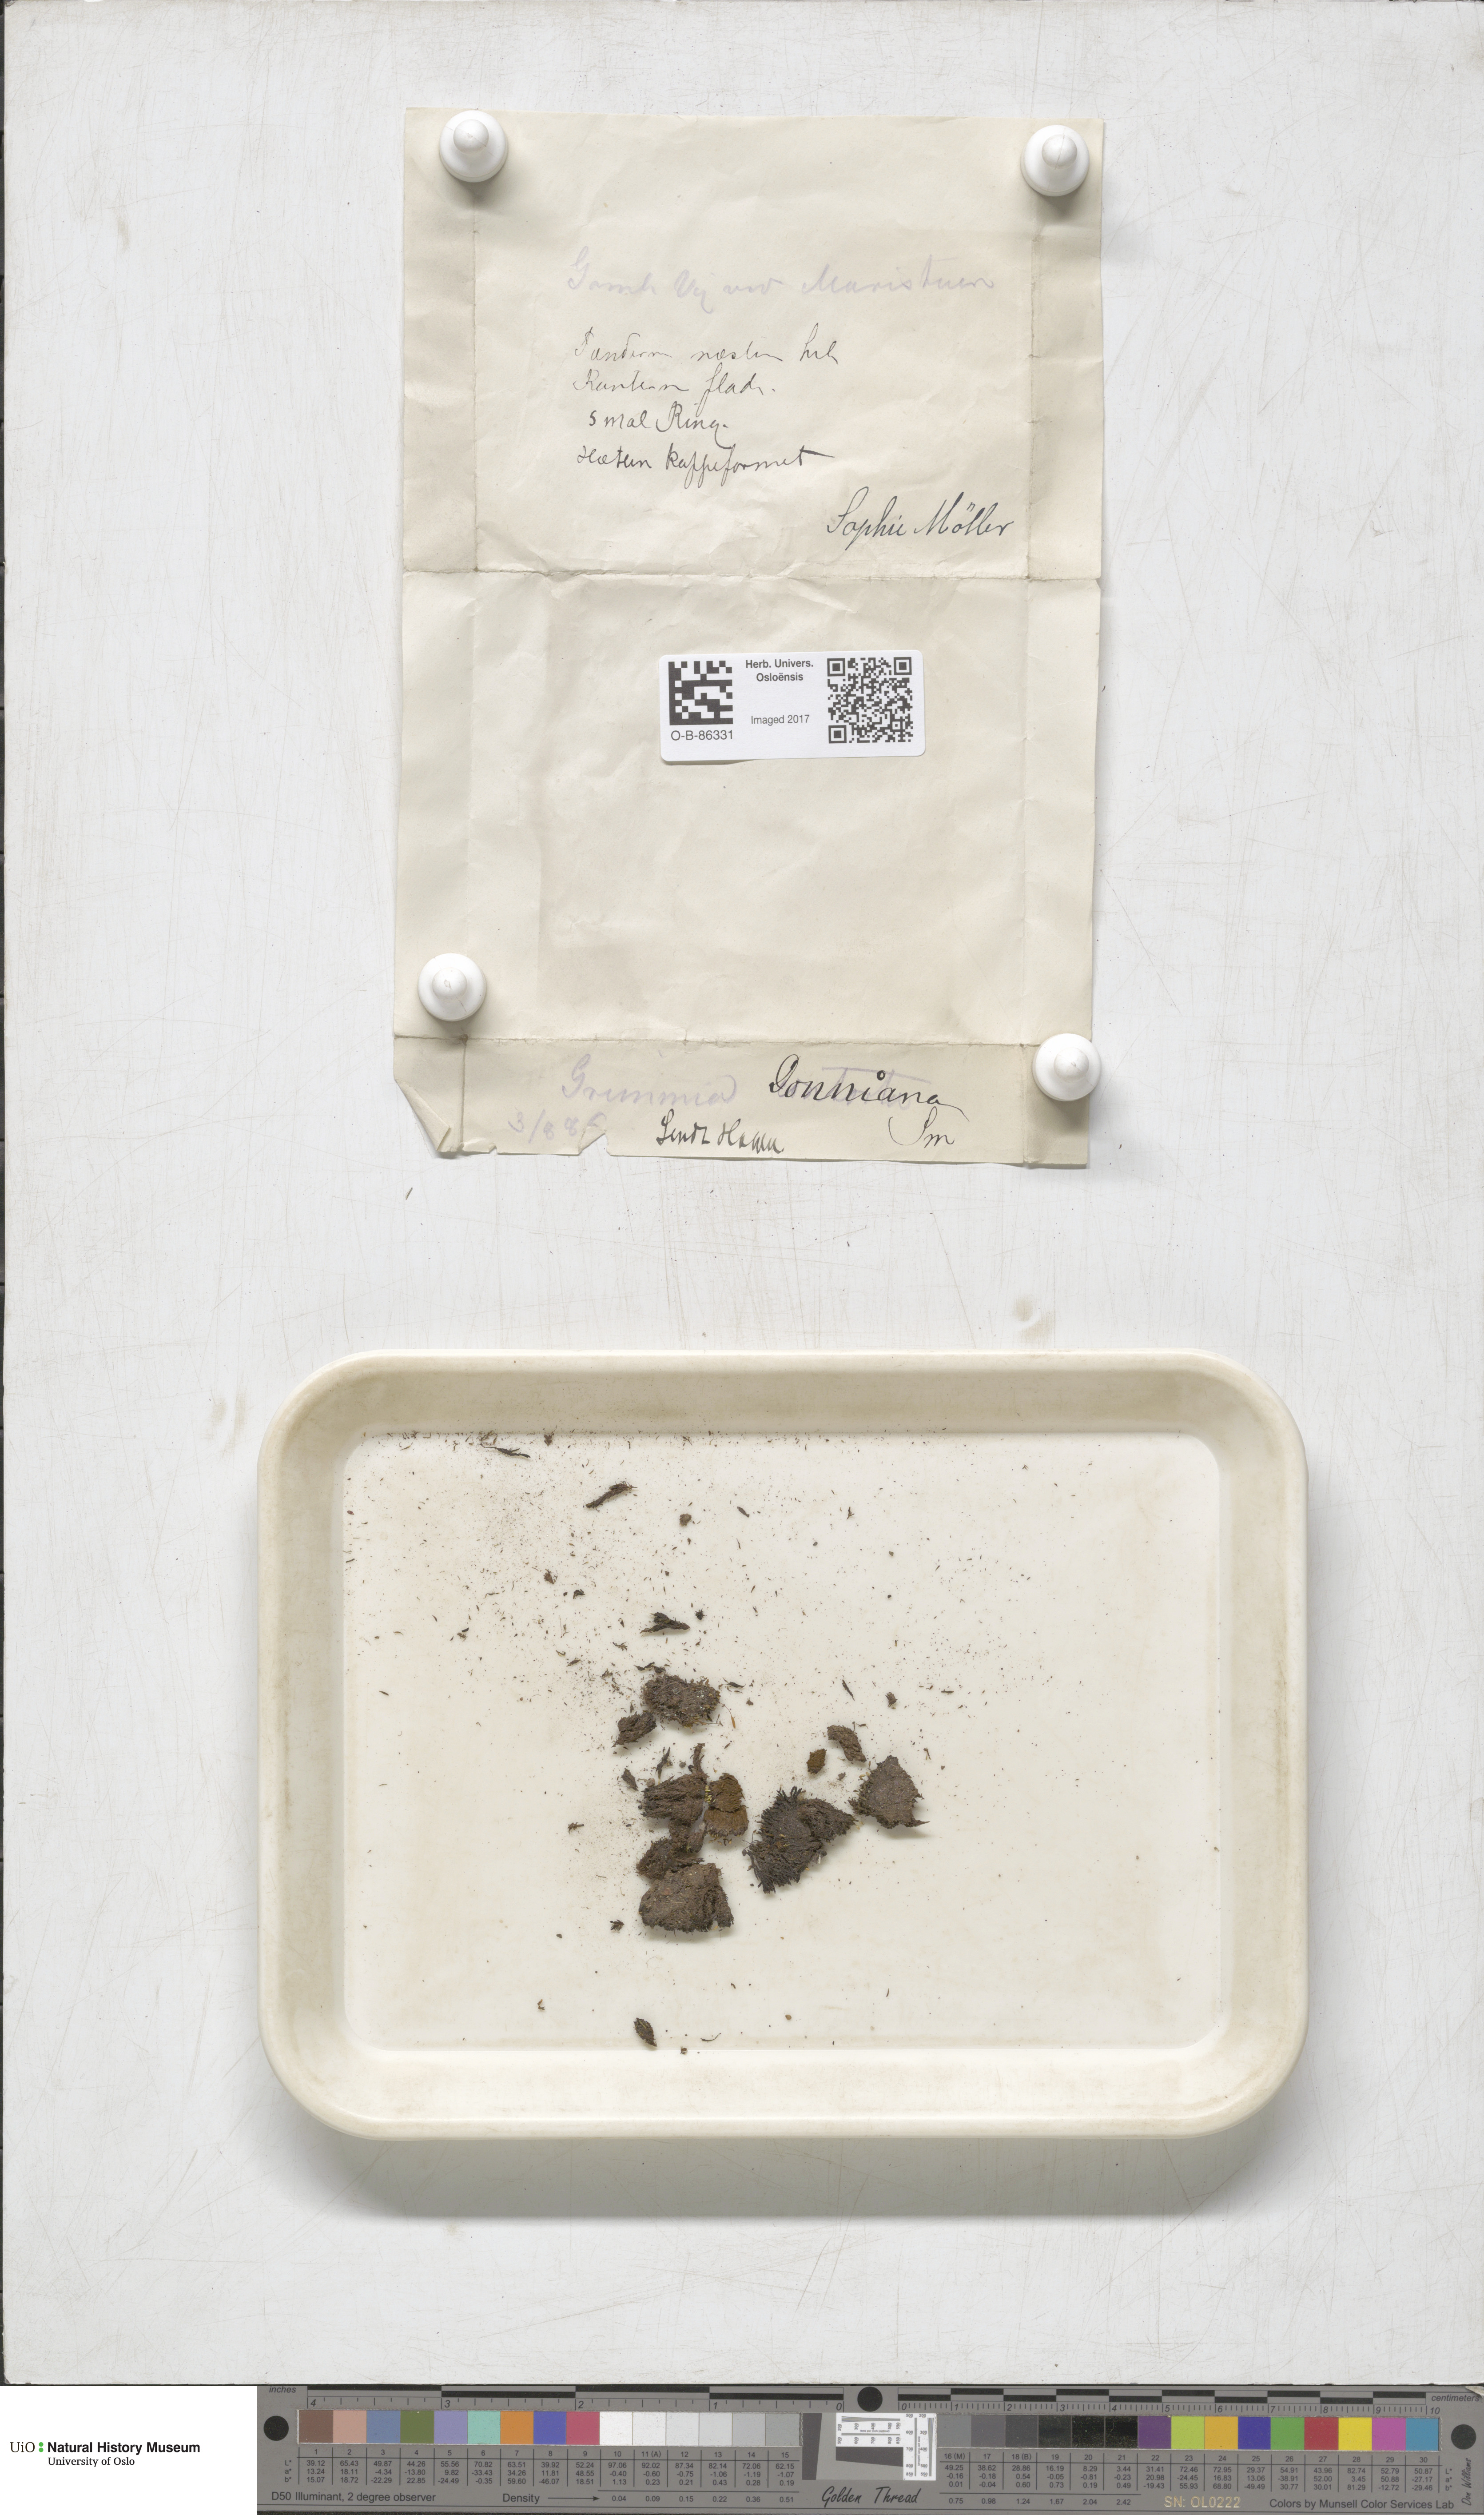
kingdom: Plantae
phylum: Bryophyta
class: Bryopsida
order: Grimmiales
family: Grimmiaceae
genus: Grimmia
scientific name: Grimmia donniana
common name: Donn's grimmia
